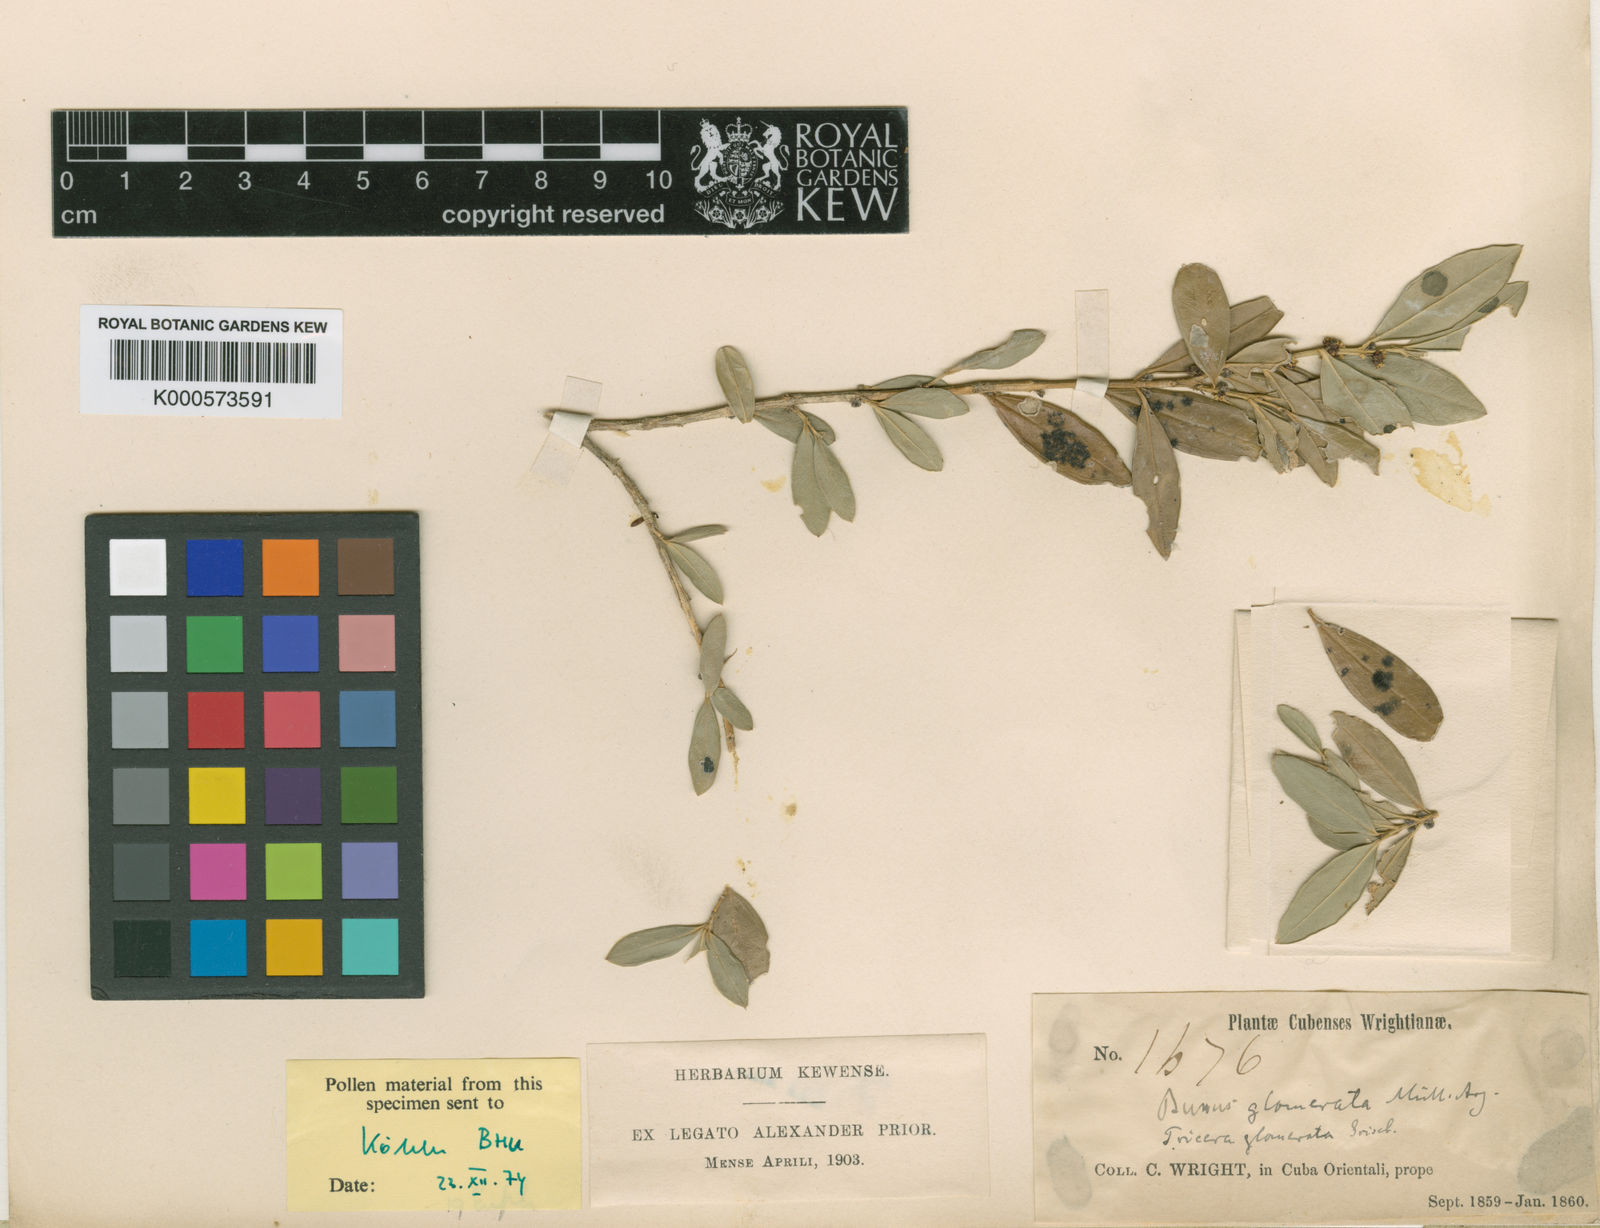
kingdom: Plantae
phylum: Tracheophyta
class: Magnoliopsida
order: Buxales
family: Buxaceae
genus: Buxus
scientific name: Buxus
